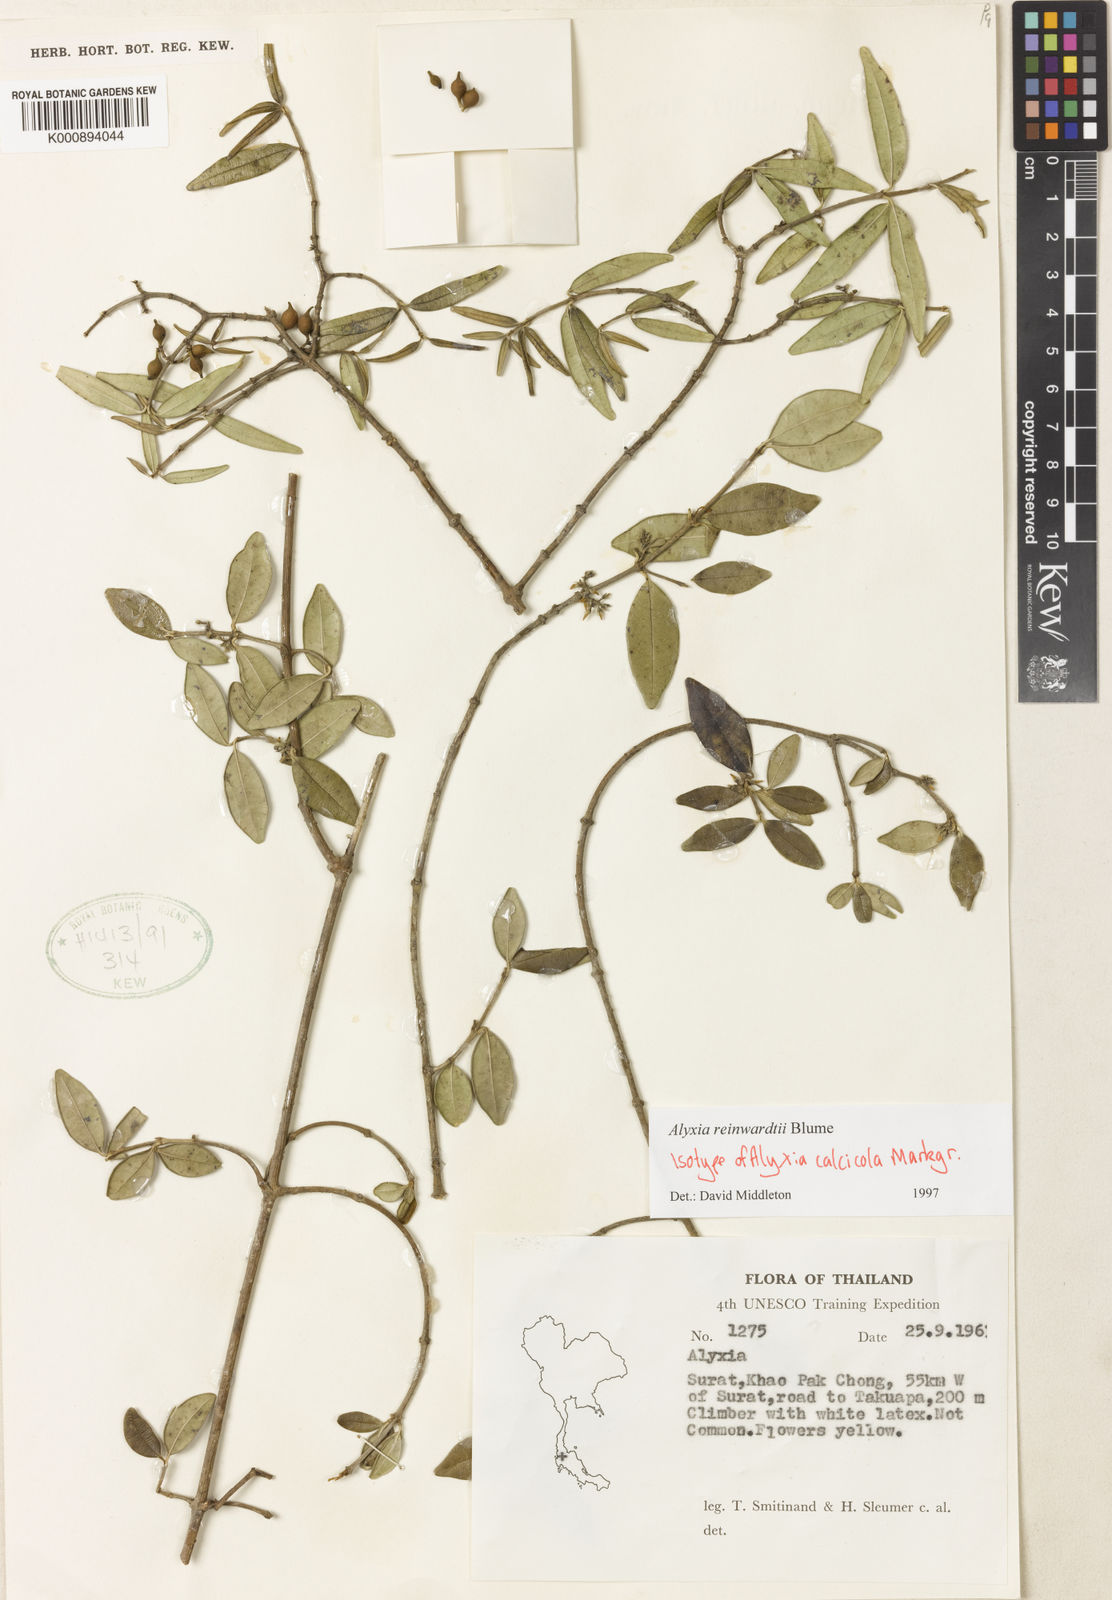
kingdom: Plantae
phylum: Tracheophyta
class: Magnoliopsida
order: Gentianales
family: Apocynaceae
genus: Alyxia
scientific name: Alyxia reinwardtii
